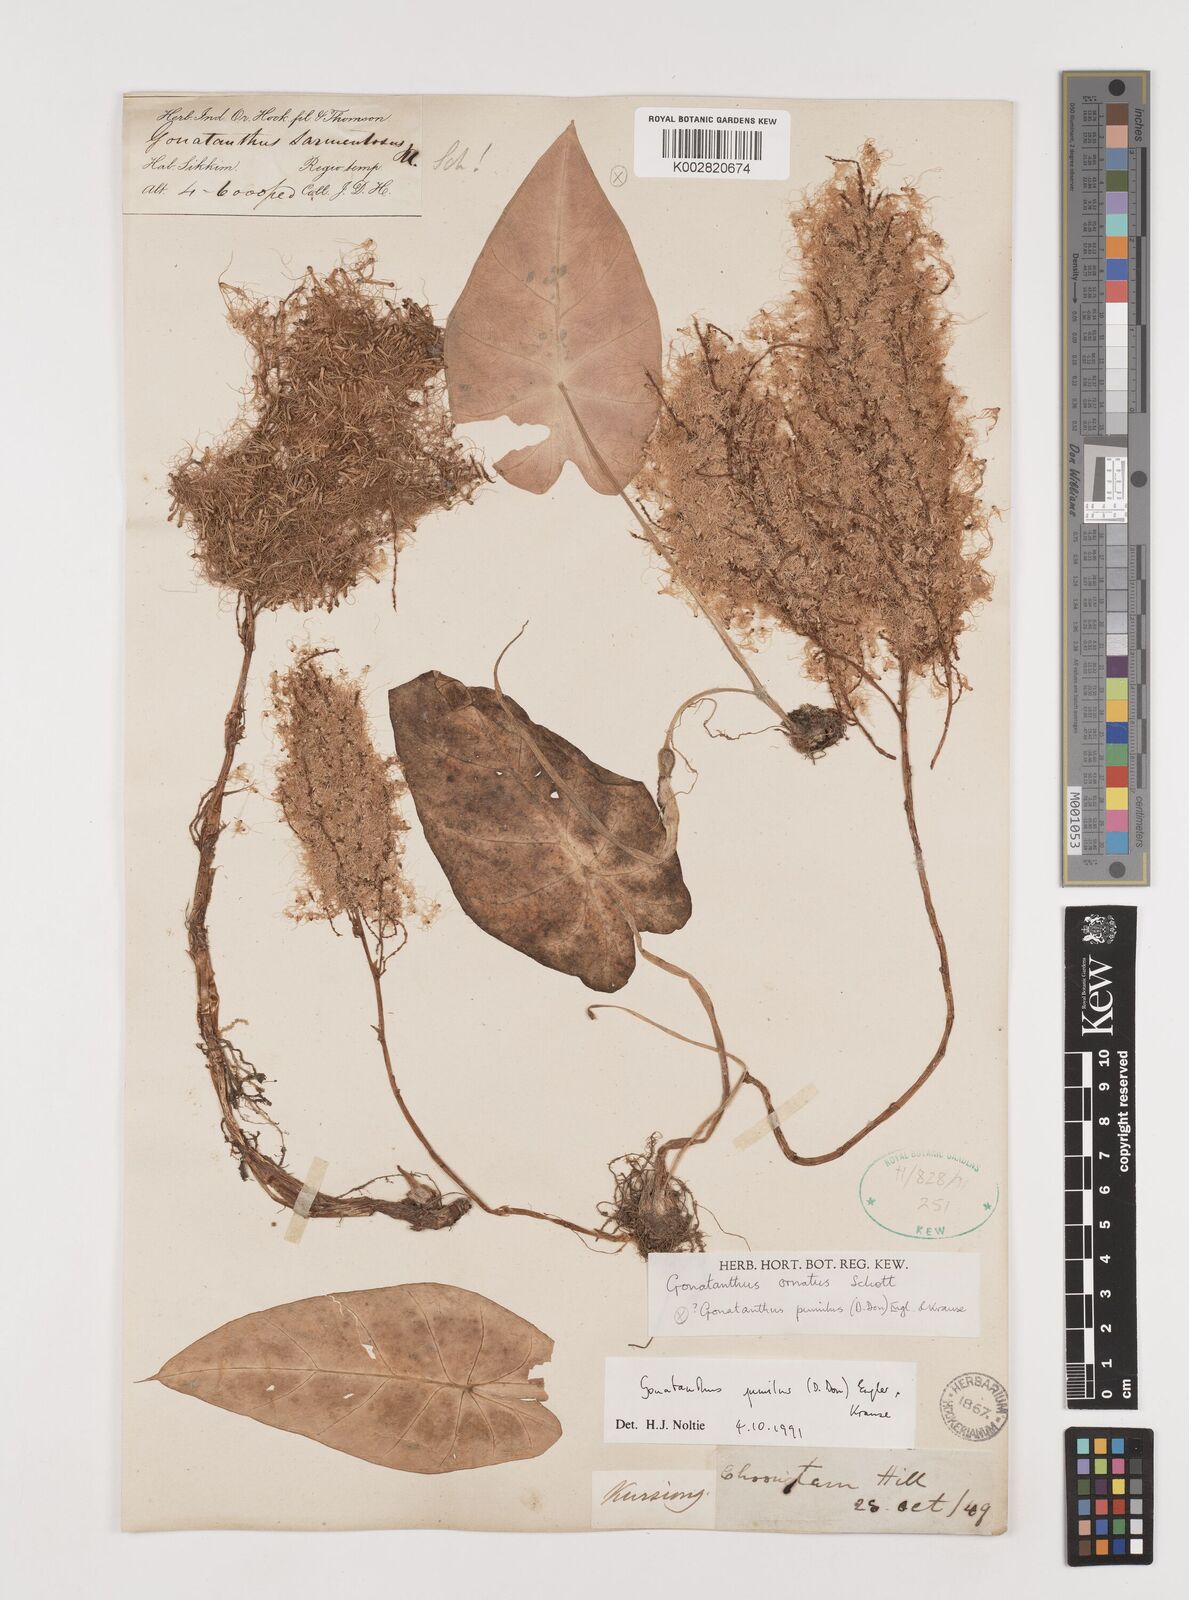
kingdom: Plantae
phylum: Tracheophyta
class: Liliopsida
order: Alismatales
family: Araceae
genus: Remusatia
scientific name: Remusatia pumila
